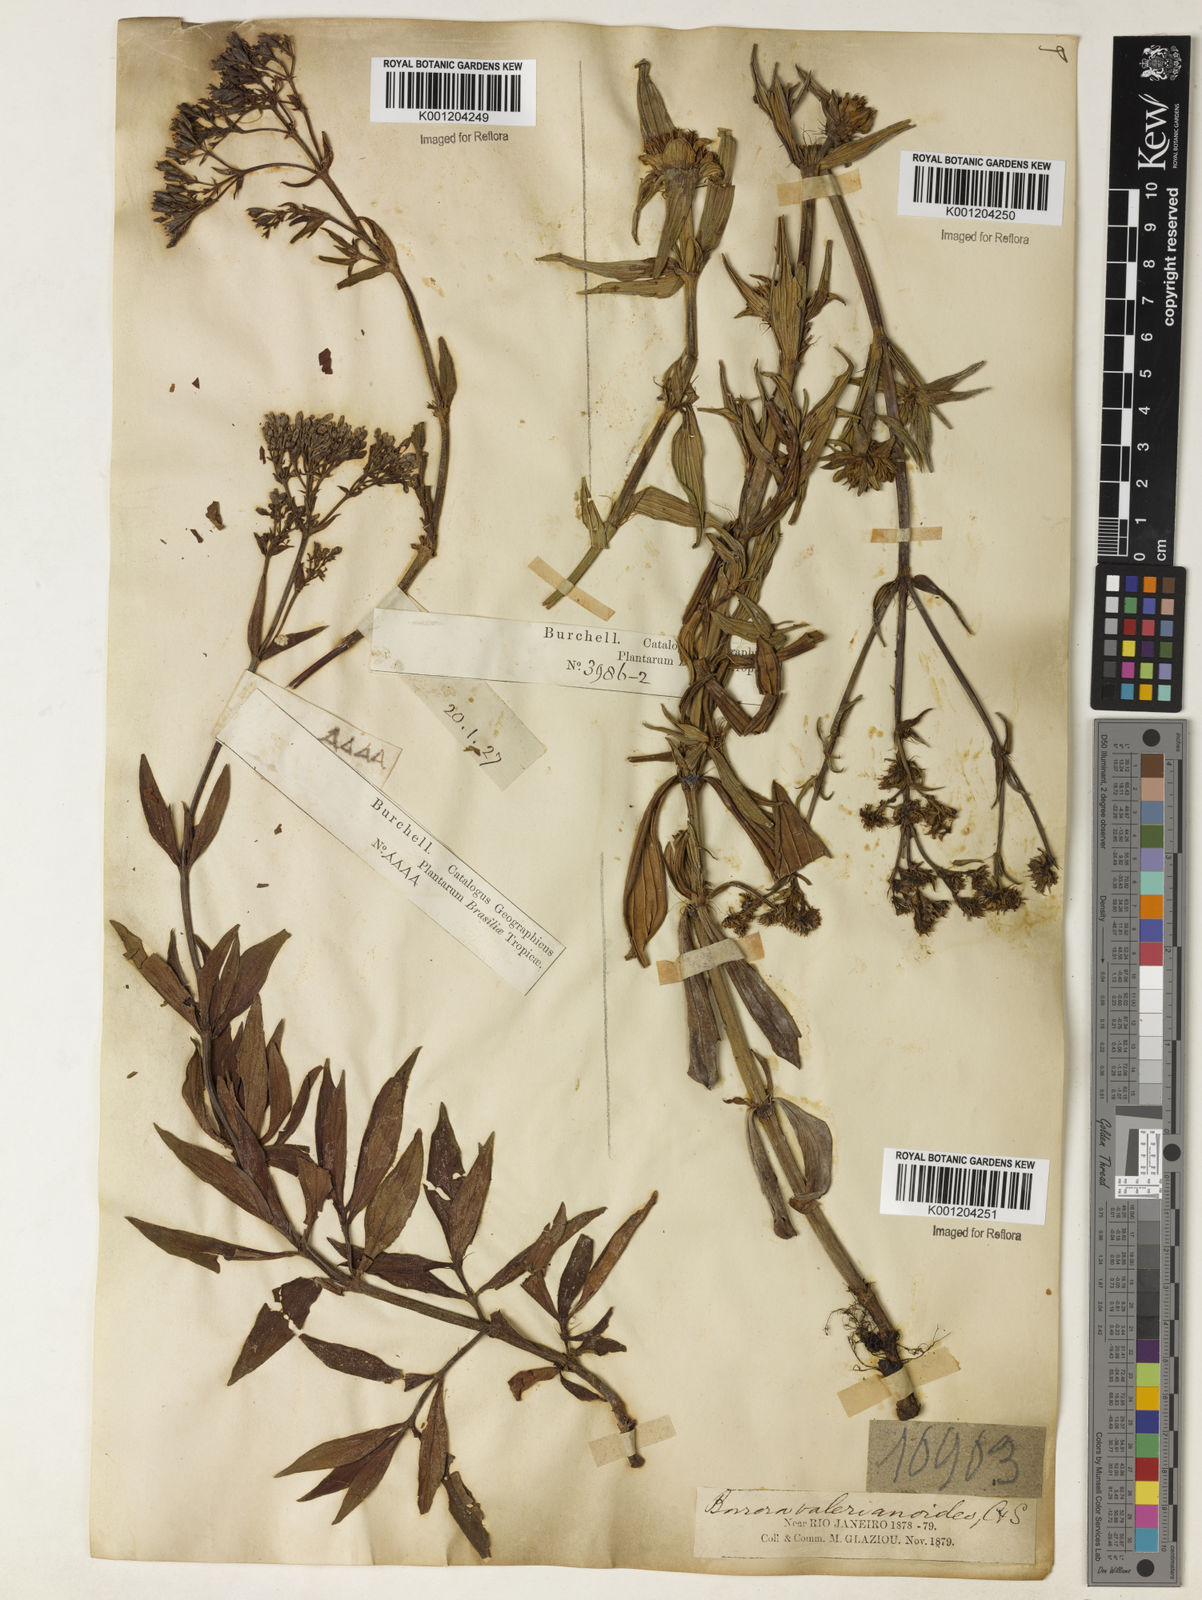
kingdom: Plantae
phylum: Tracheophyta
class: Magnoliopsida
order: Gentianales
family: Rubiaceae
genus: Galianthe
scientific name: Galianthe valerianoides
